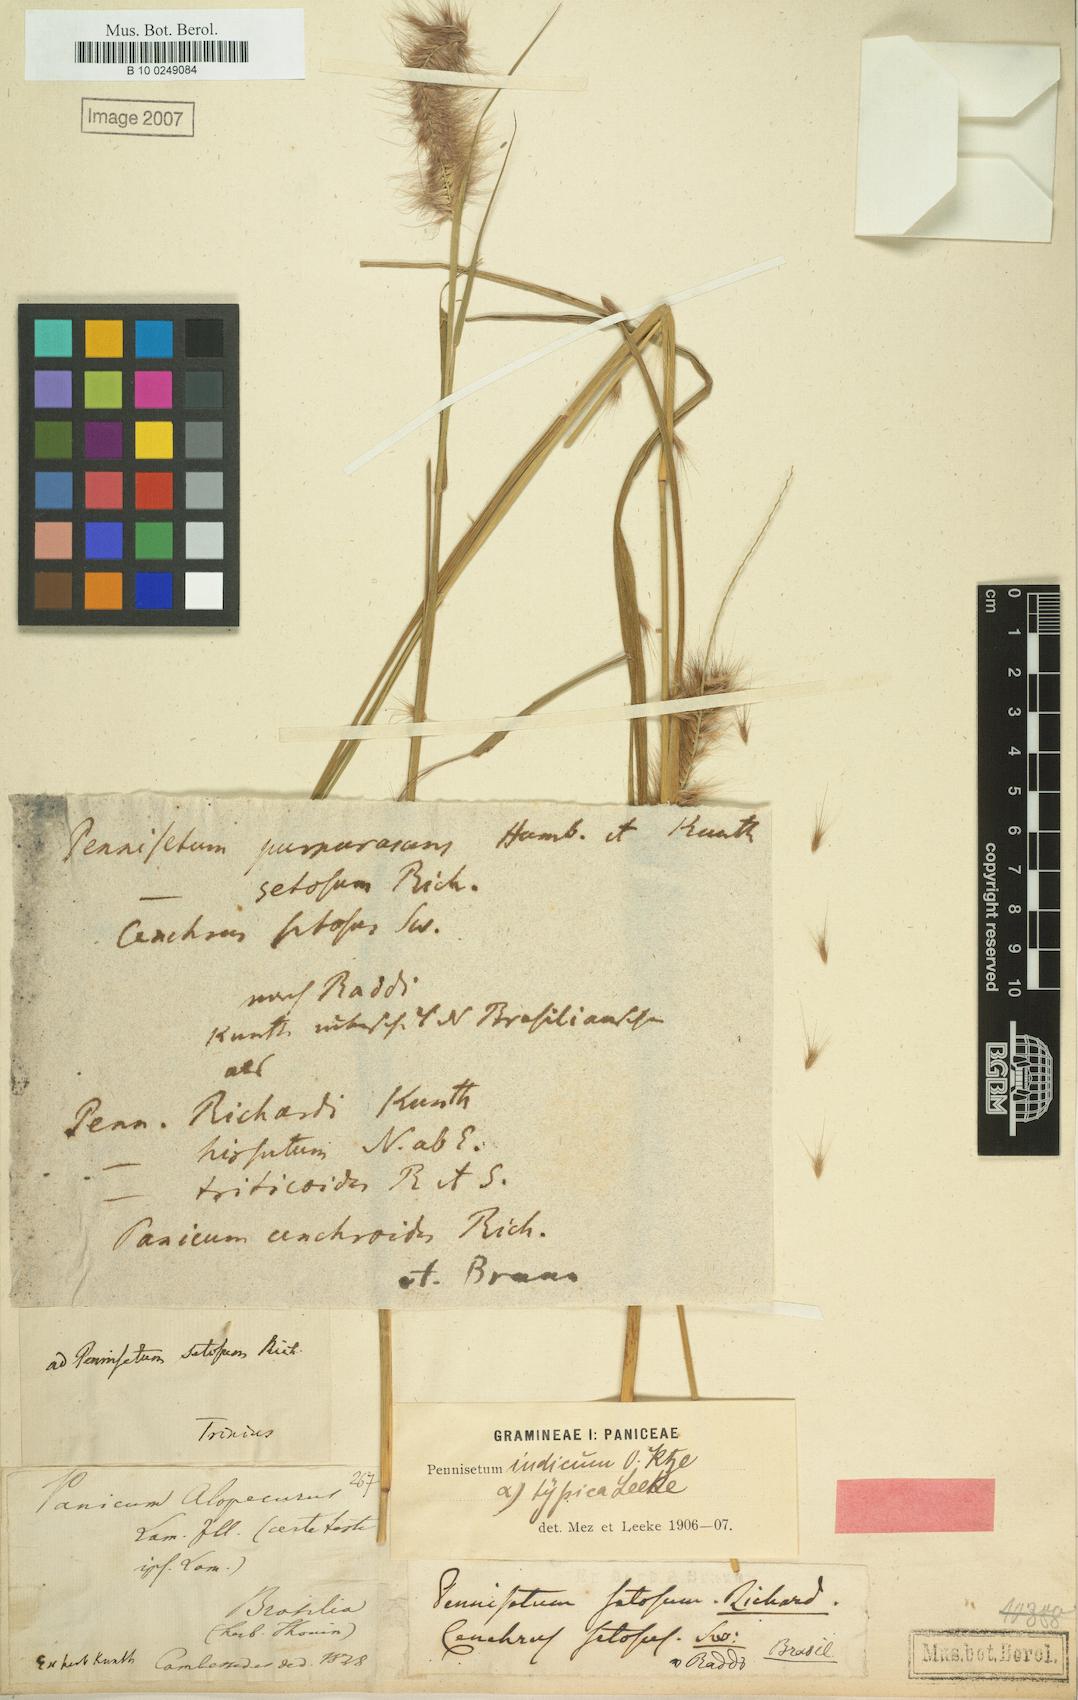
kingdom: Plantae
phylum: Tracheophyta
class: Liliopsida
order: Poales
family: Poaceae
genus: Cenchrus
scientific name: Cenchrus setosus
